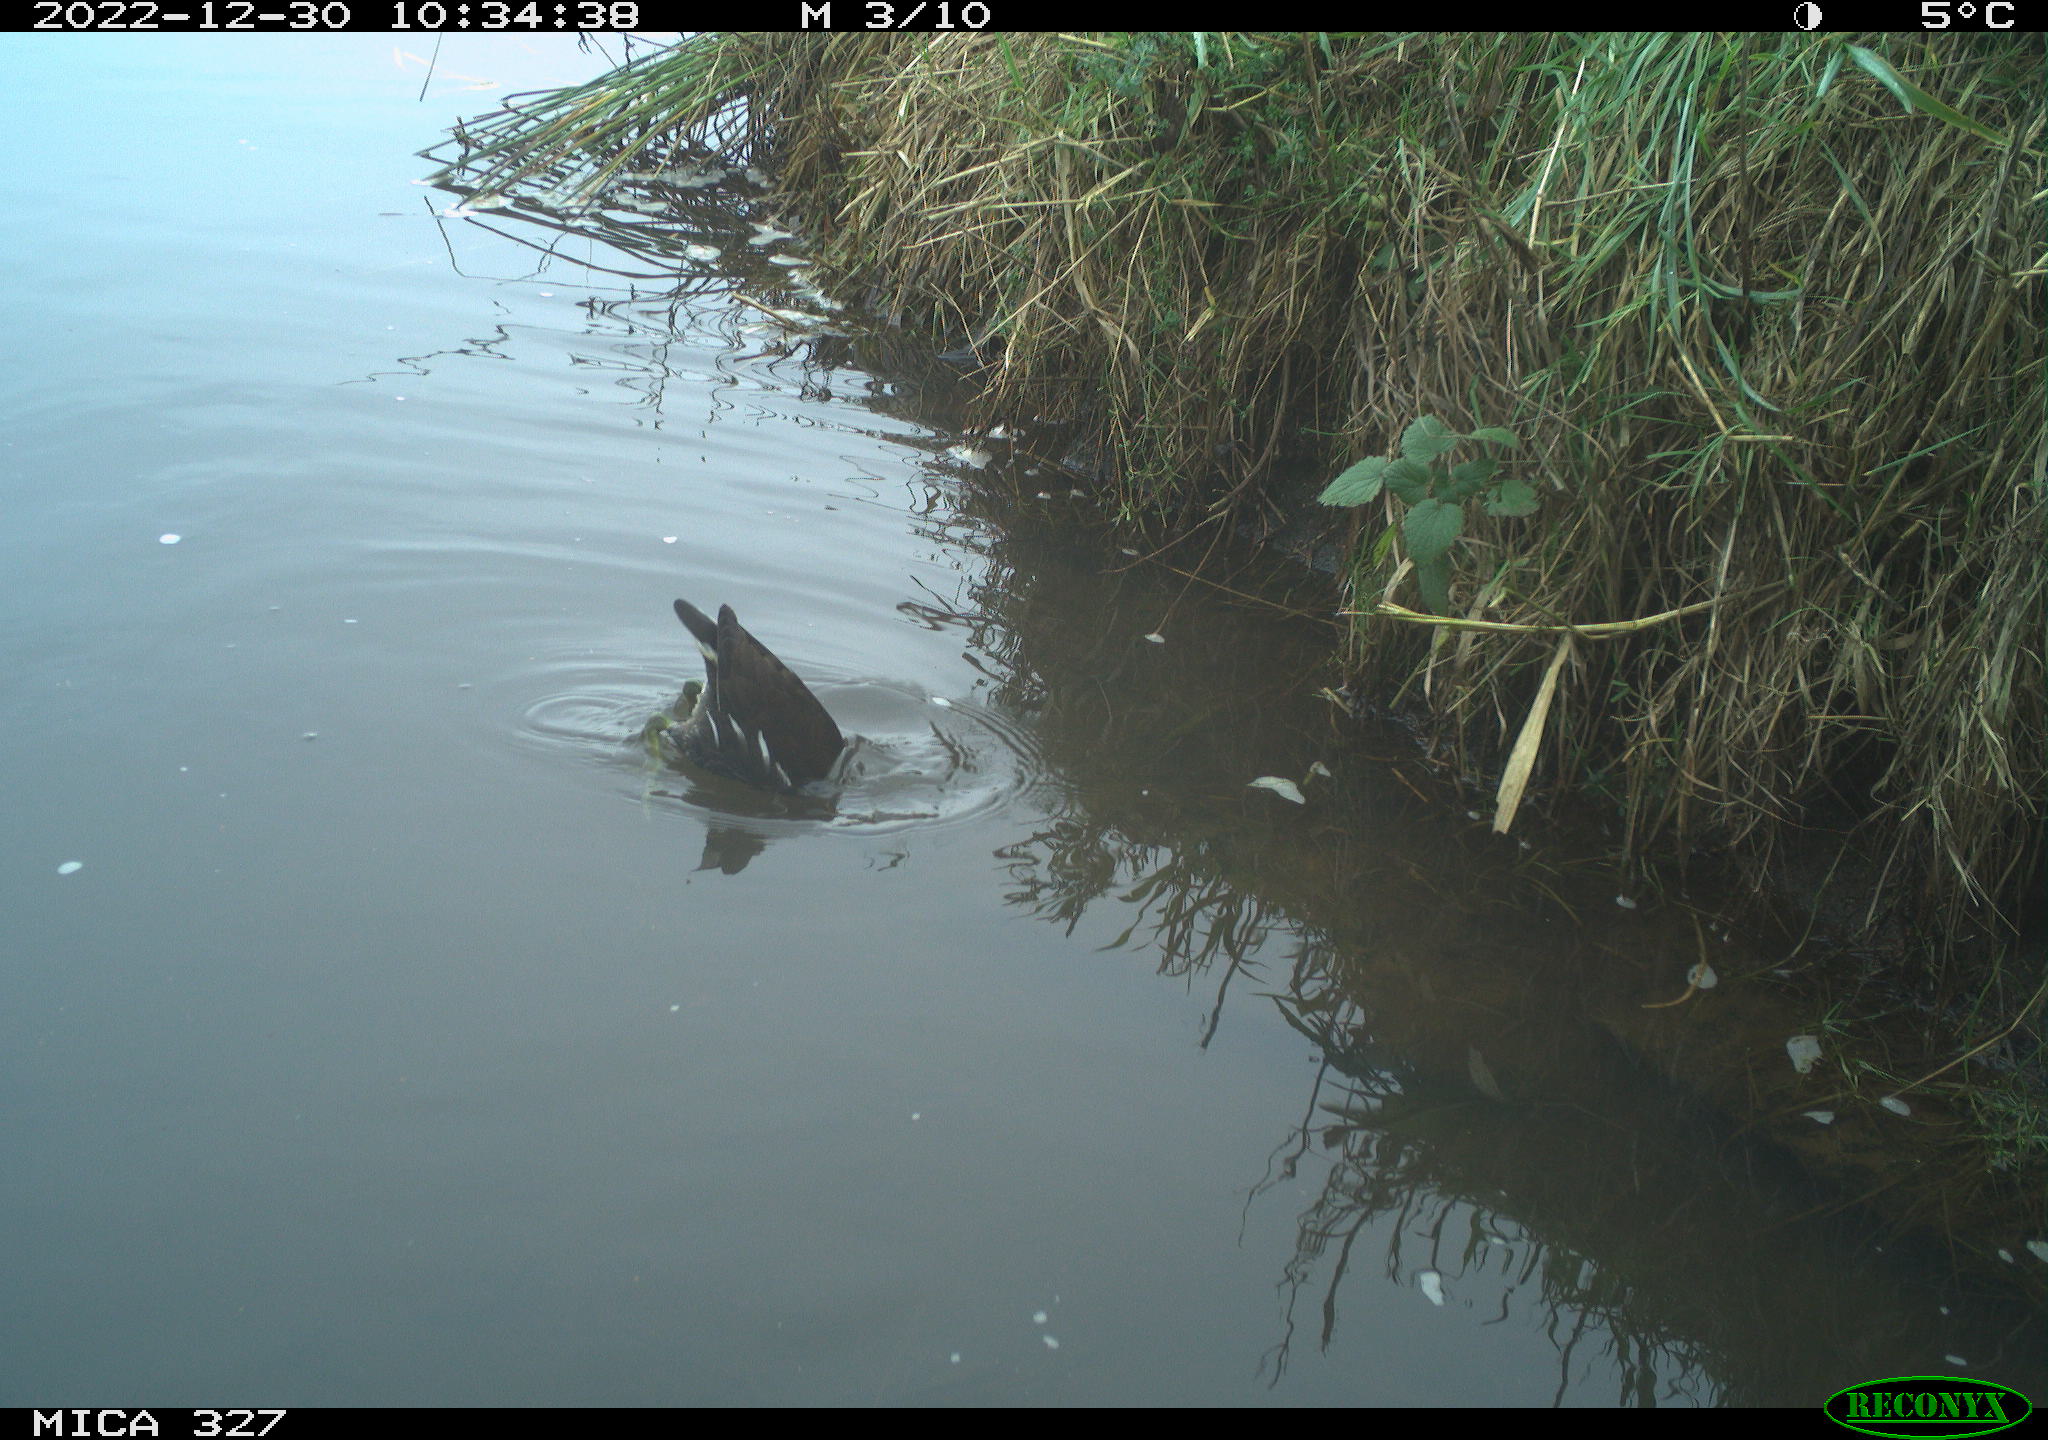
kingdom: Animalia
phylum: Chordata
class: Aves
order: Gruiformes
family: Rallidae
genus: Gallinula
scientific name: Gallinula chloropus
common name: Common moorhen
